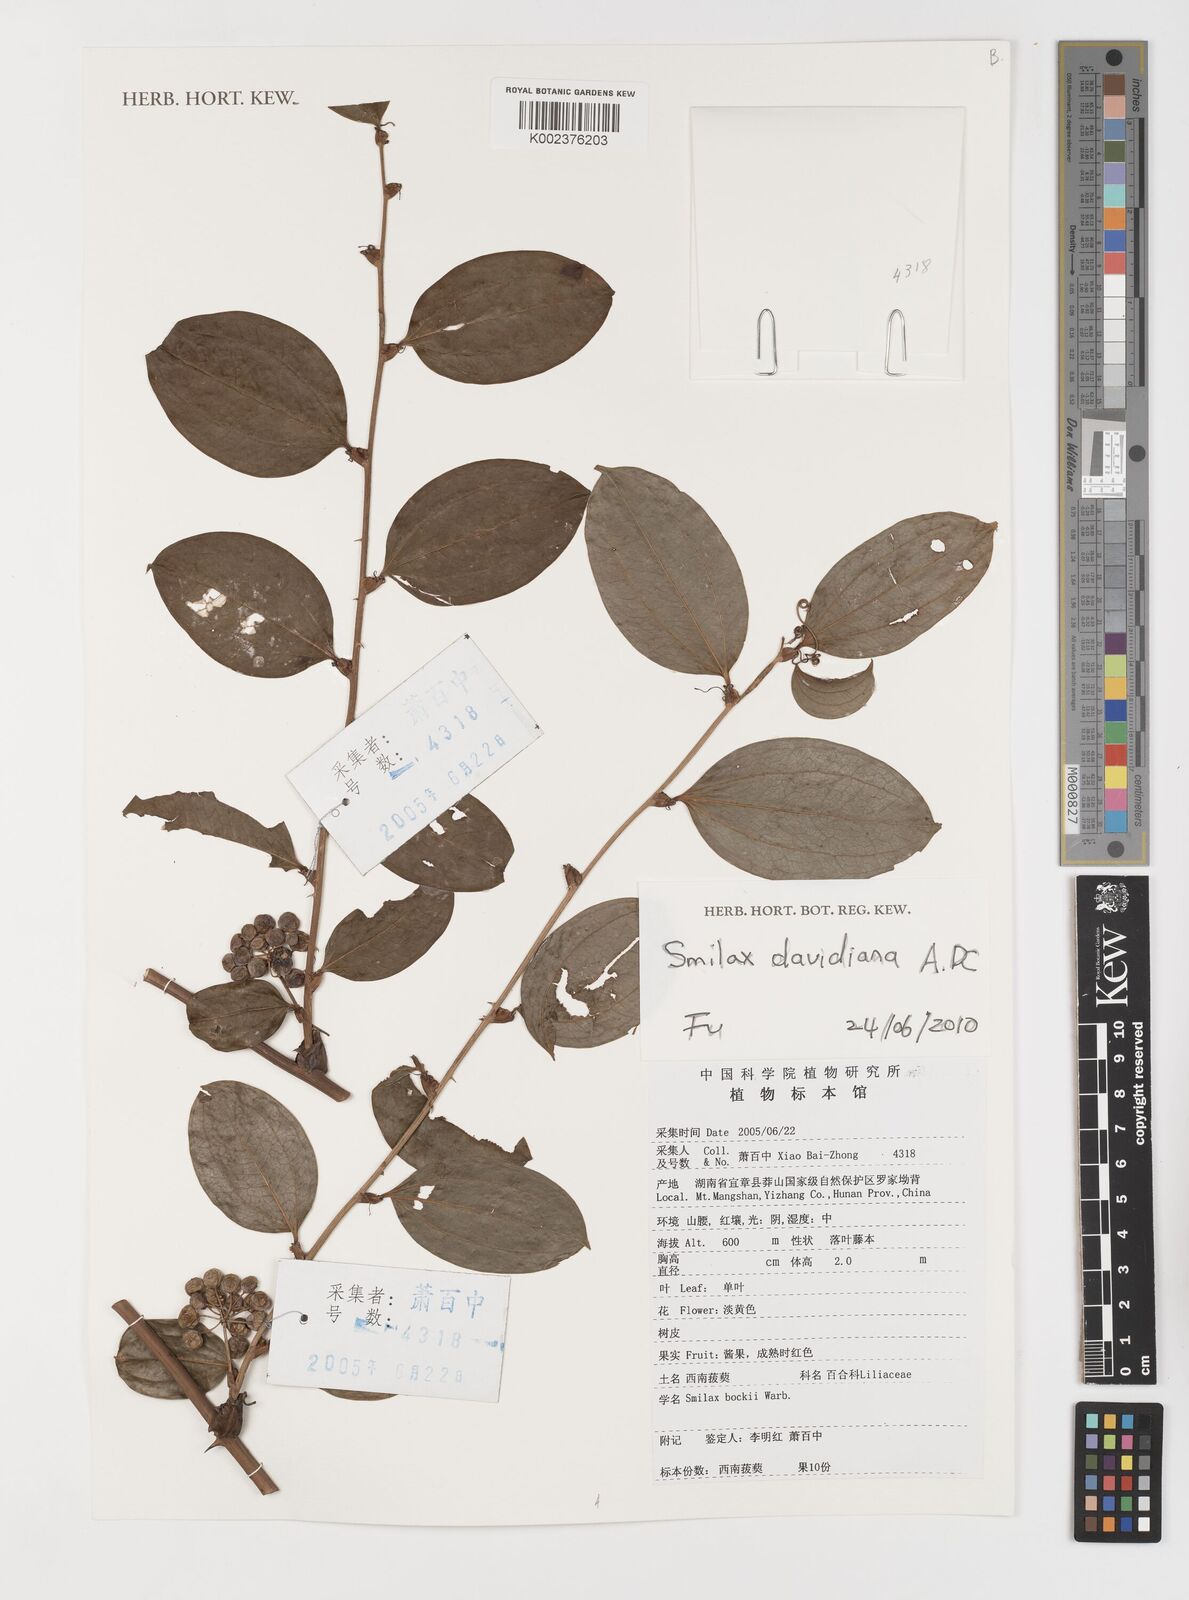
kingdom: Plantae
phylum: Tracheophyta
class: Liliopsida
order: Liliales
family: Smilacaceae
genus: Smilax
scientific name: Smilax davidiana
